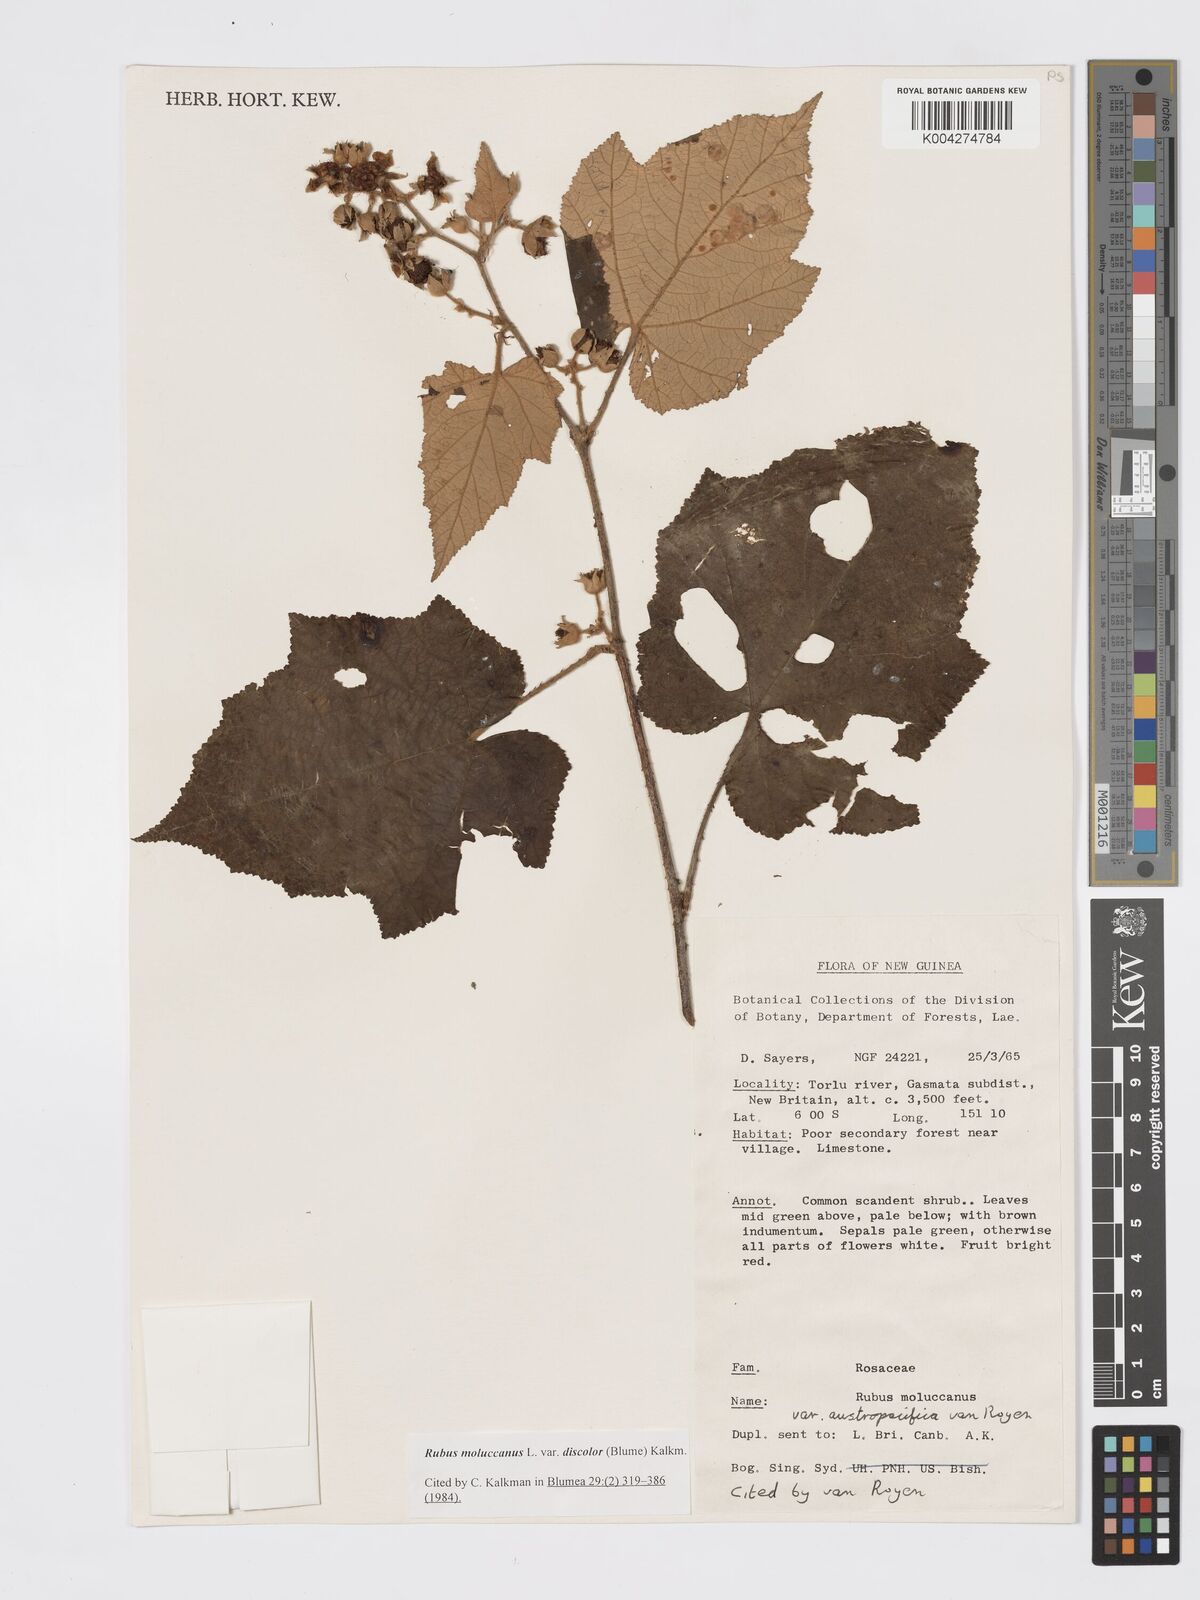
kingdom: Plantae
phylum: Tracheophyta
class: Magnoliopsida
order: Rosales
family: Rosaceae
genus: Rubus
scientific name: Rubus moluccanus
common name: Wild raspberry
